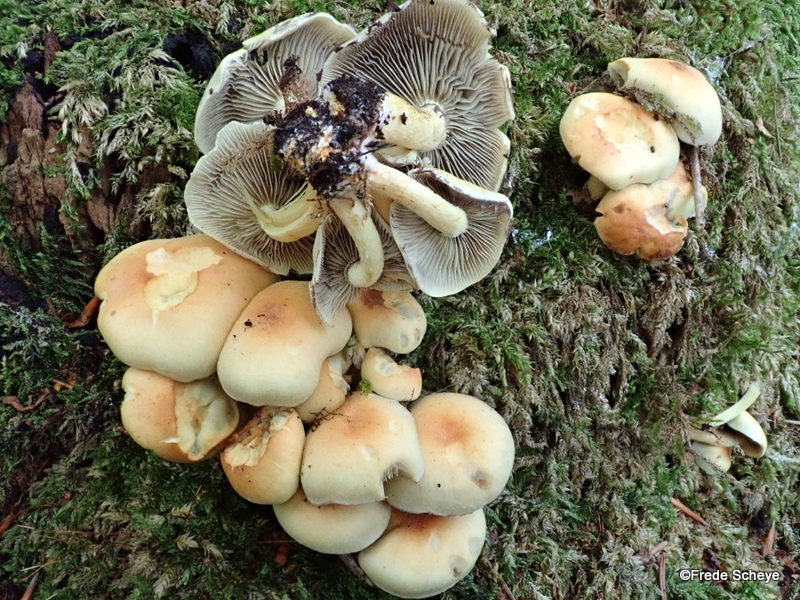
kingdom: Fungi
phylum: Basidiomycota
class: Agaricomycetes
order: Agaricales
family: Strophariaceae
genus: Hypholoma
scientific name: Hypholoma fasciculare
